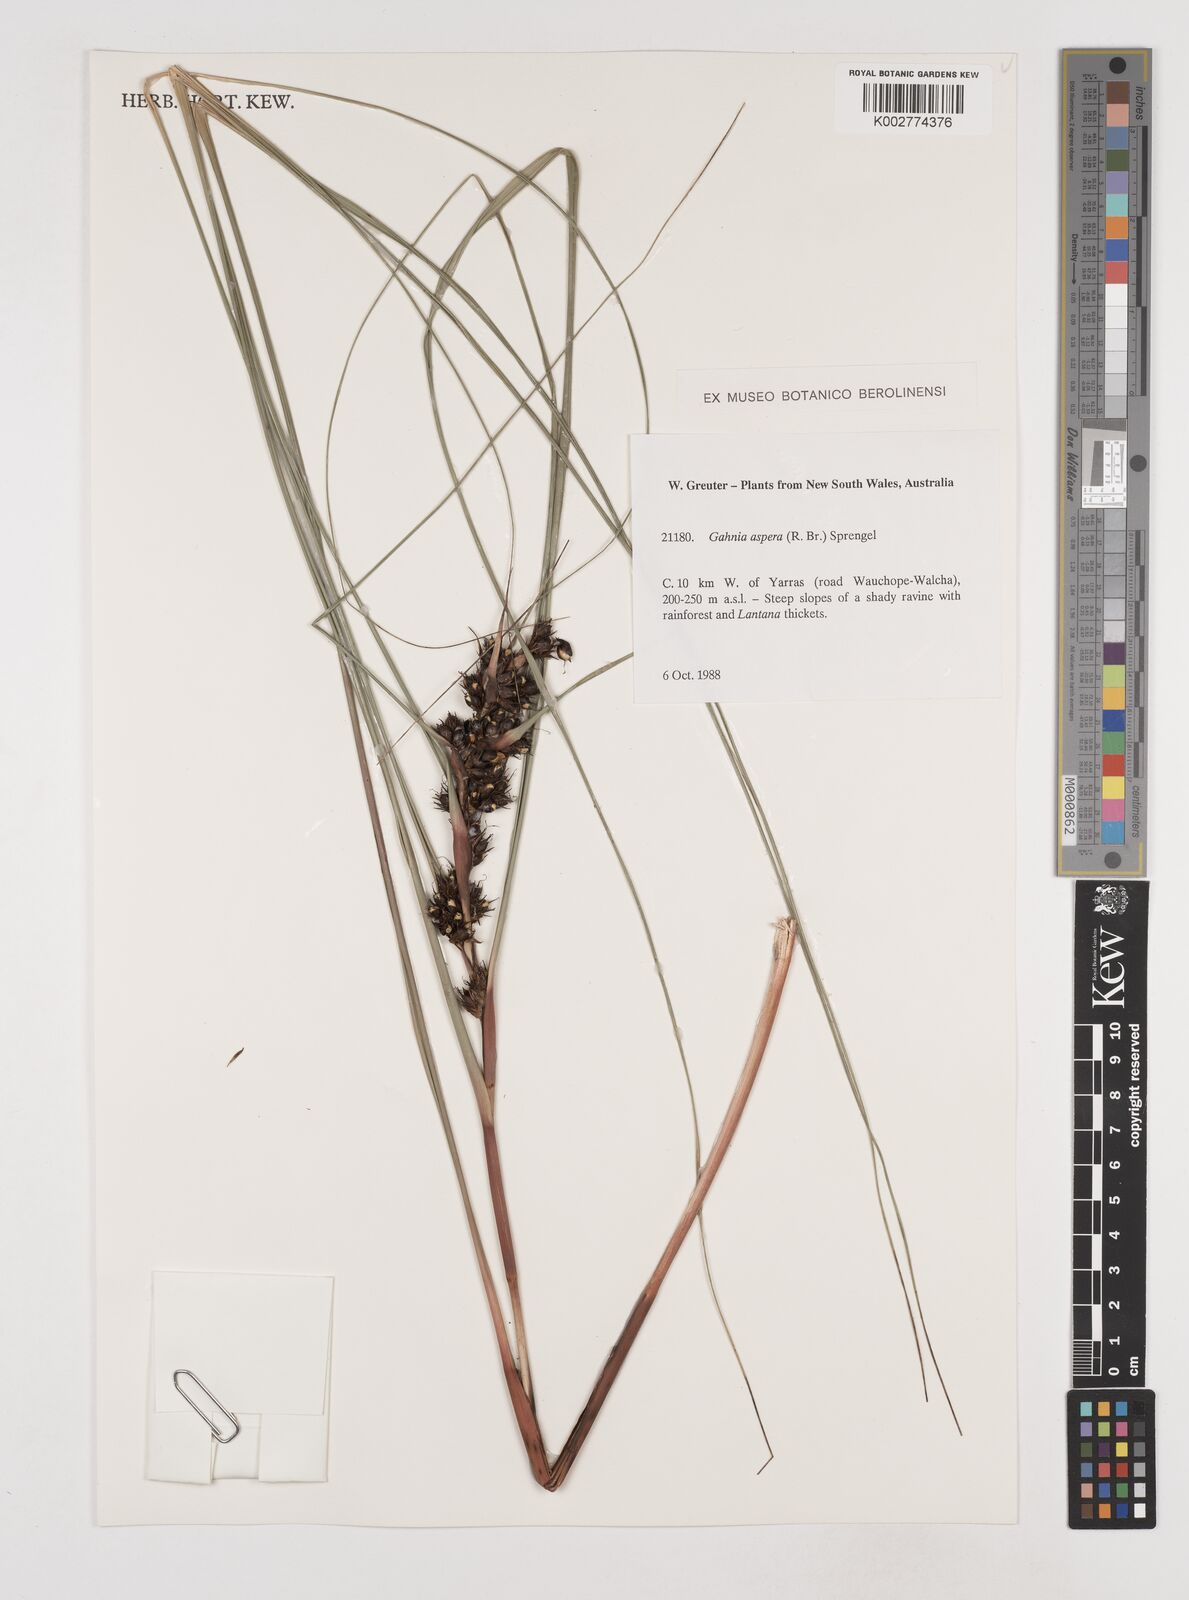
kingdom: Plantae
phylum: Tracheophyta
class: Liliopsida
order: Poales
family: Cyperaceae
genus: Gahnia
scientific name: Gahnia aspera
